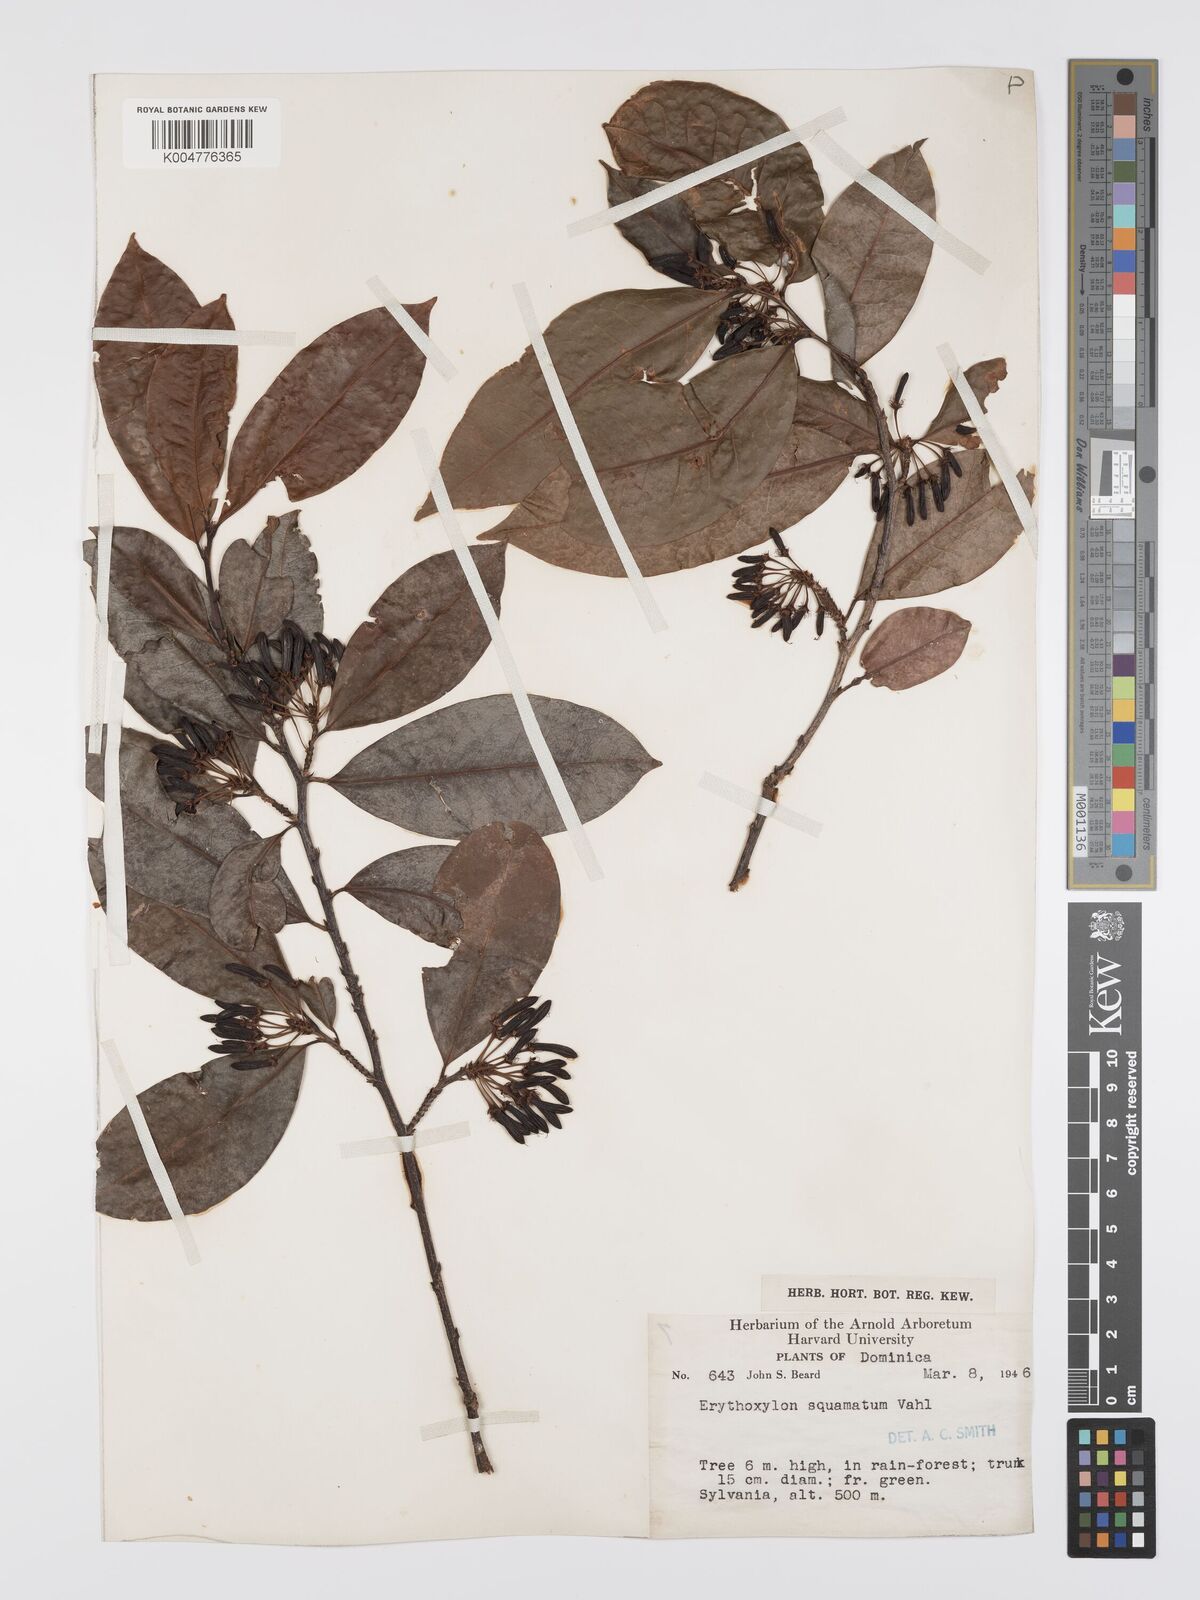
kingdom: Plantae
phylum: Tracheophyta
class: Magnoliopsida
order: Malpighiales
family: Erythroxylaceae
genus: Erythroxylum
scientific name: Erythroxylum squamatum
